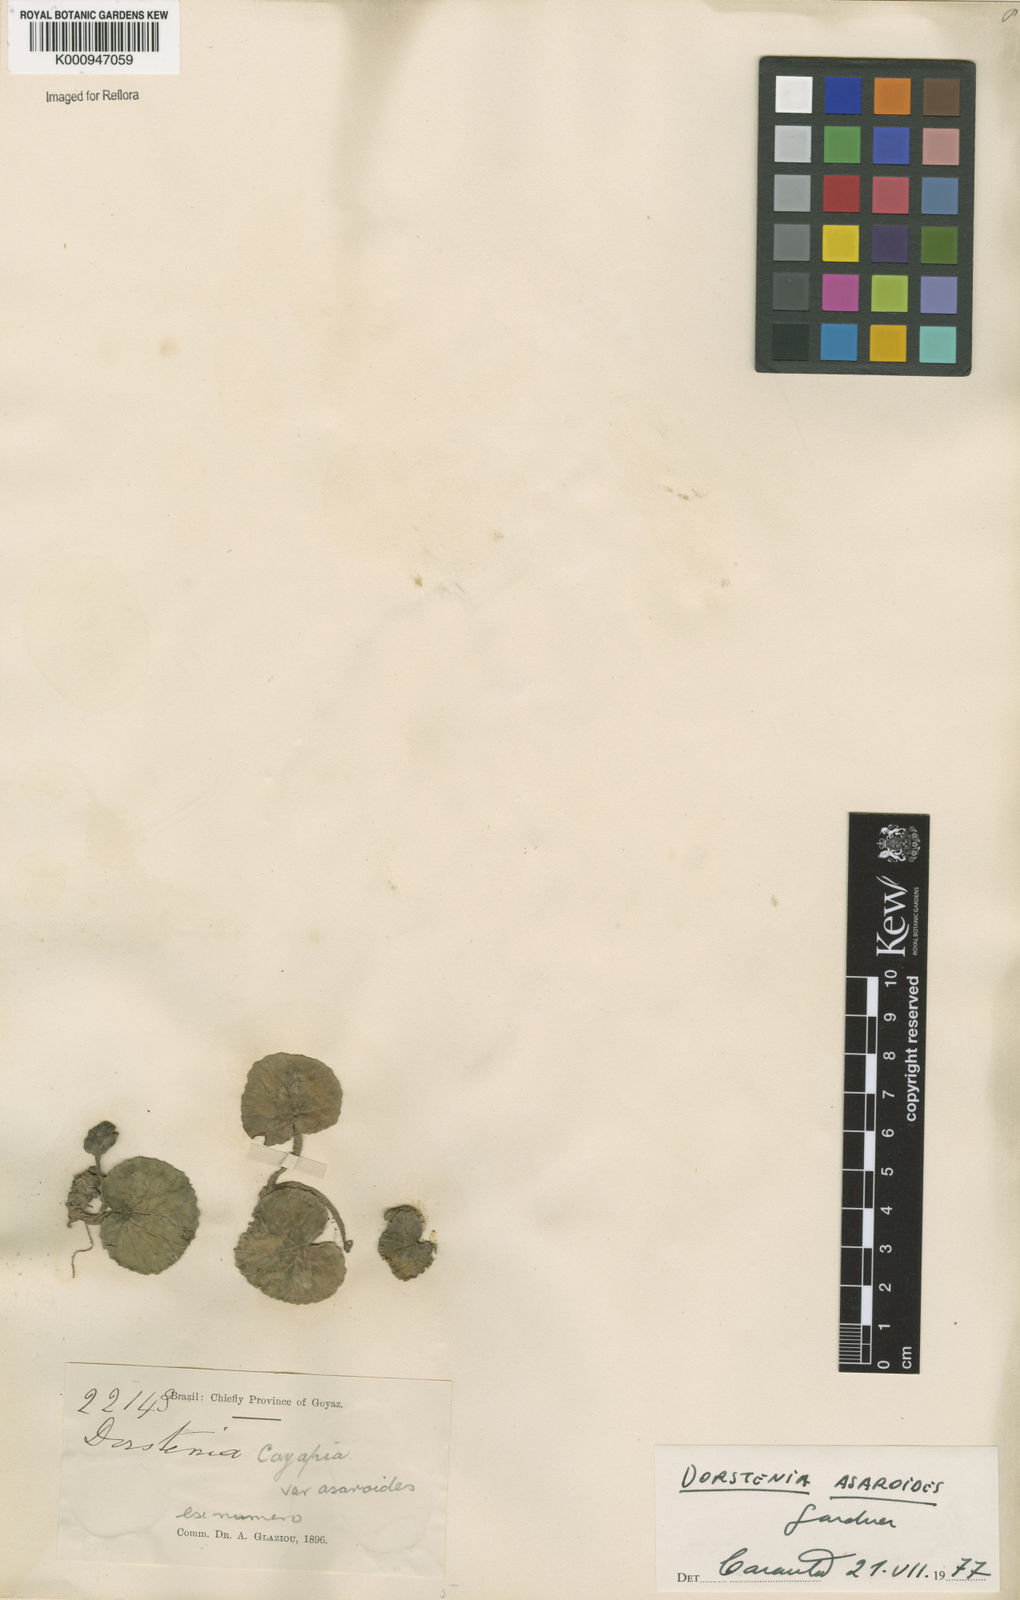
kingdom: Plantae
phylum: Tracheophyta
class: Magnoliopsida
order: Rosales
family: Moraceae
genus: Dorstenia
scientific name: Dorstenia
